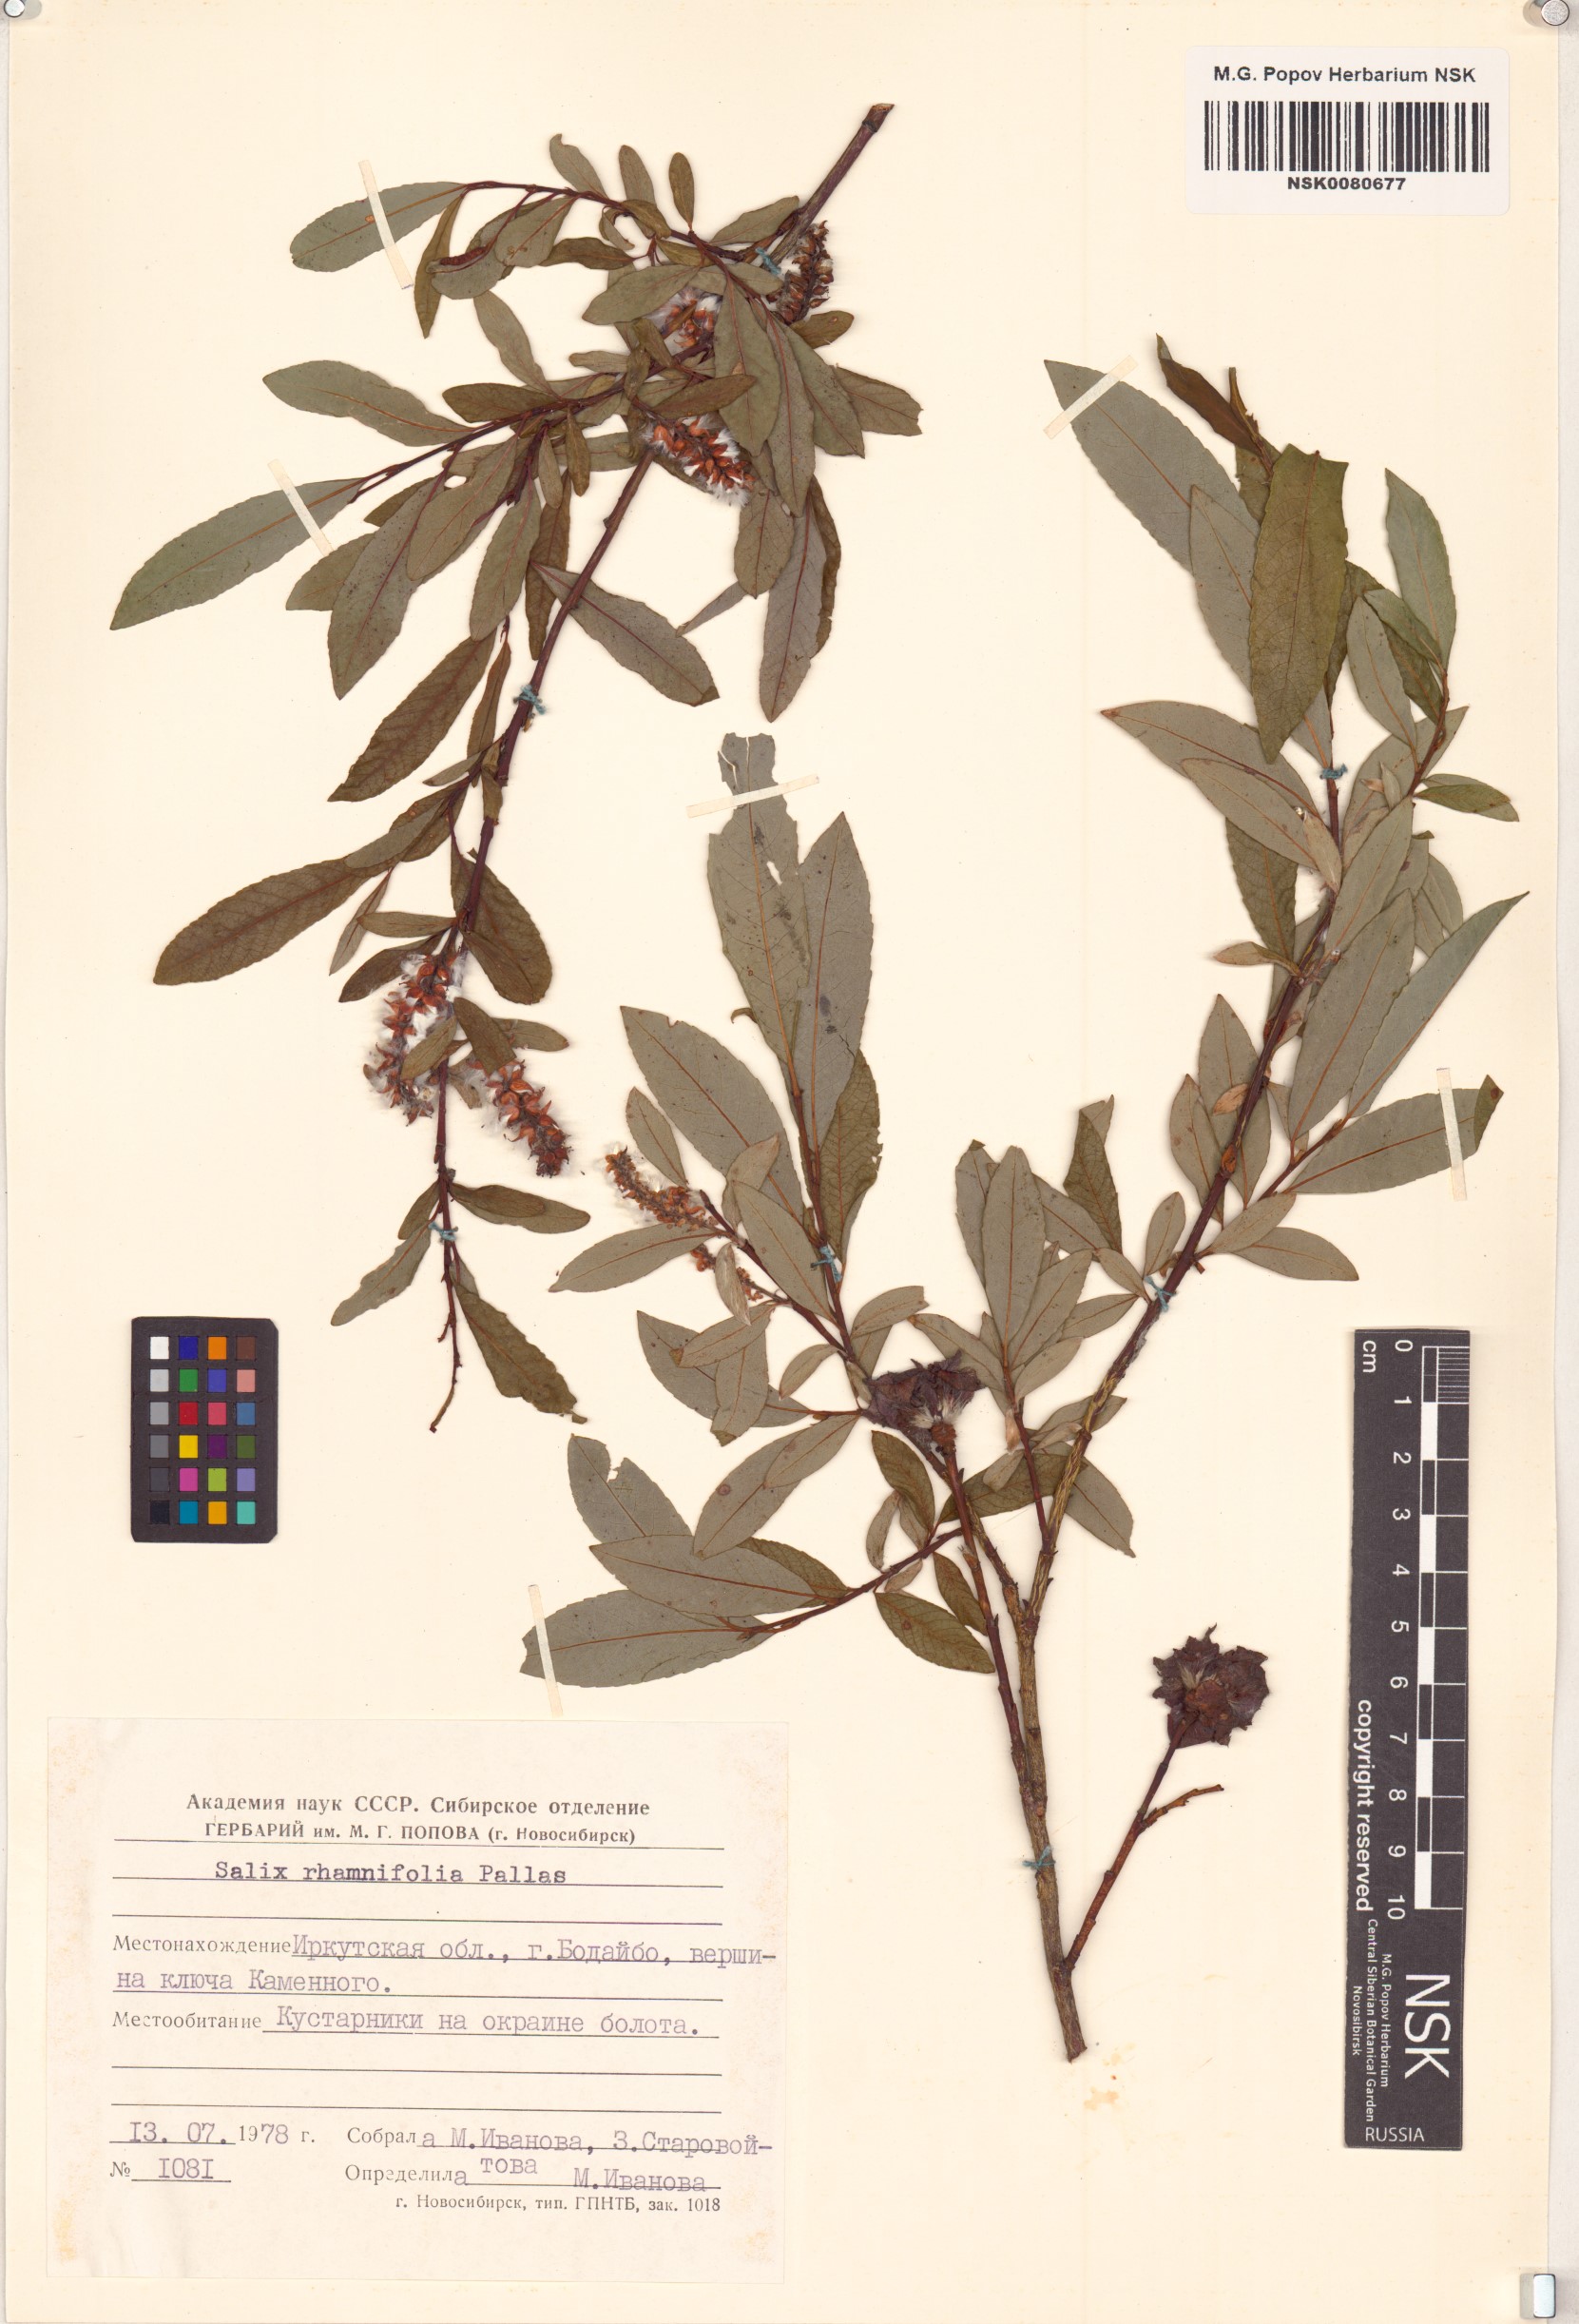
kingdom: Plantae
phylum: Tracheophyta
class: Magnoliopsida
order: Malpighiales
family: Salicaceae
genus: Salix
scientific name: Salix rhamnifolia
